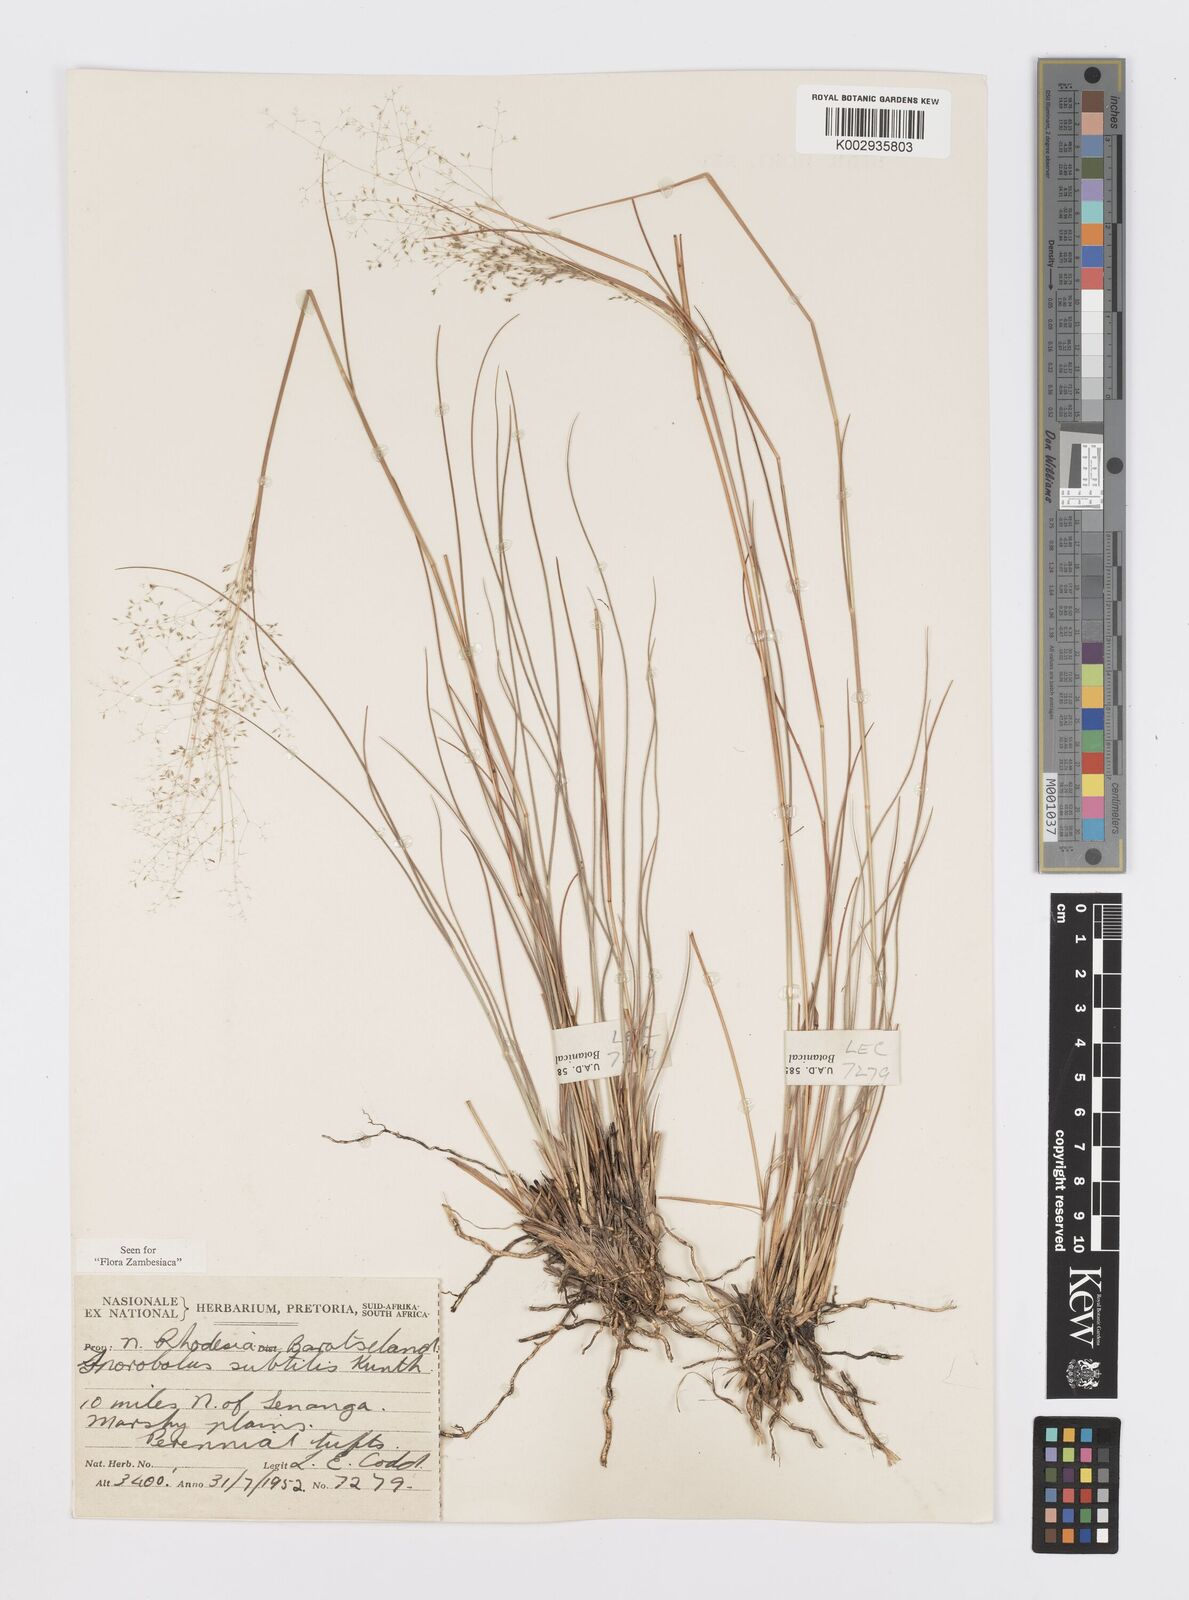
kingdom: Plantae
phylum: Tracheophyta
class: Liliopsida
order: Poales
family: Poaceae
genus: Sporobolus
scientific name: Sporobolus subtilis
